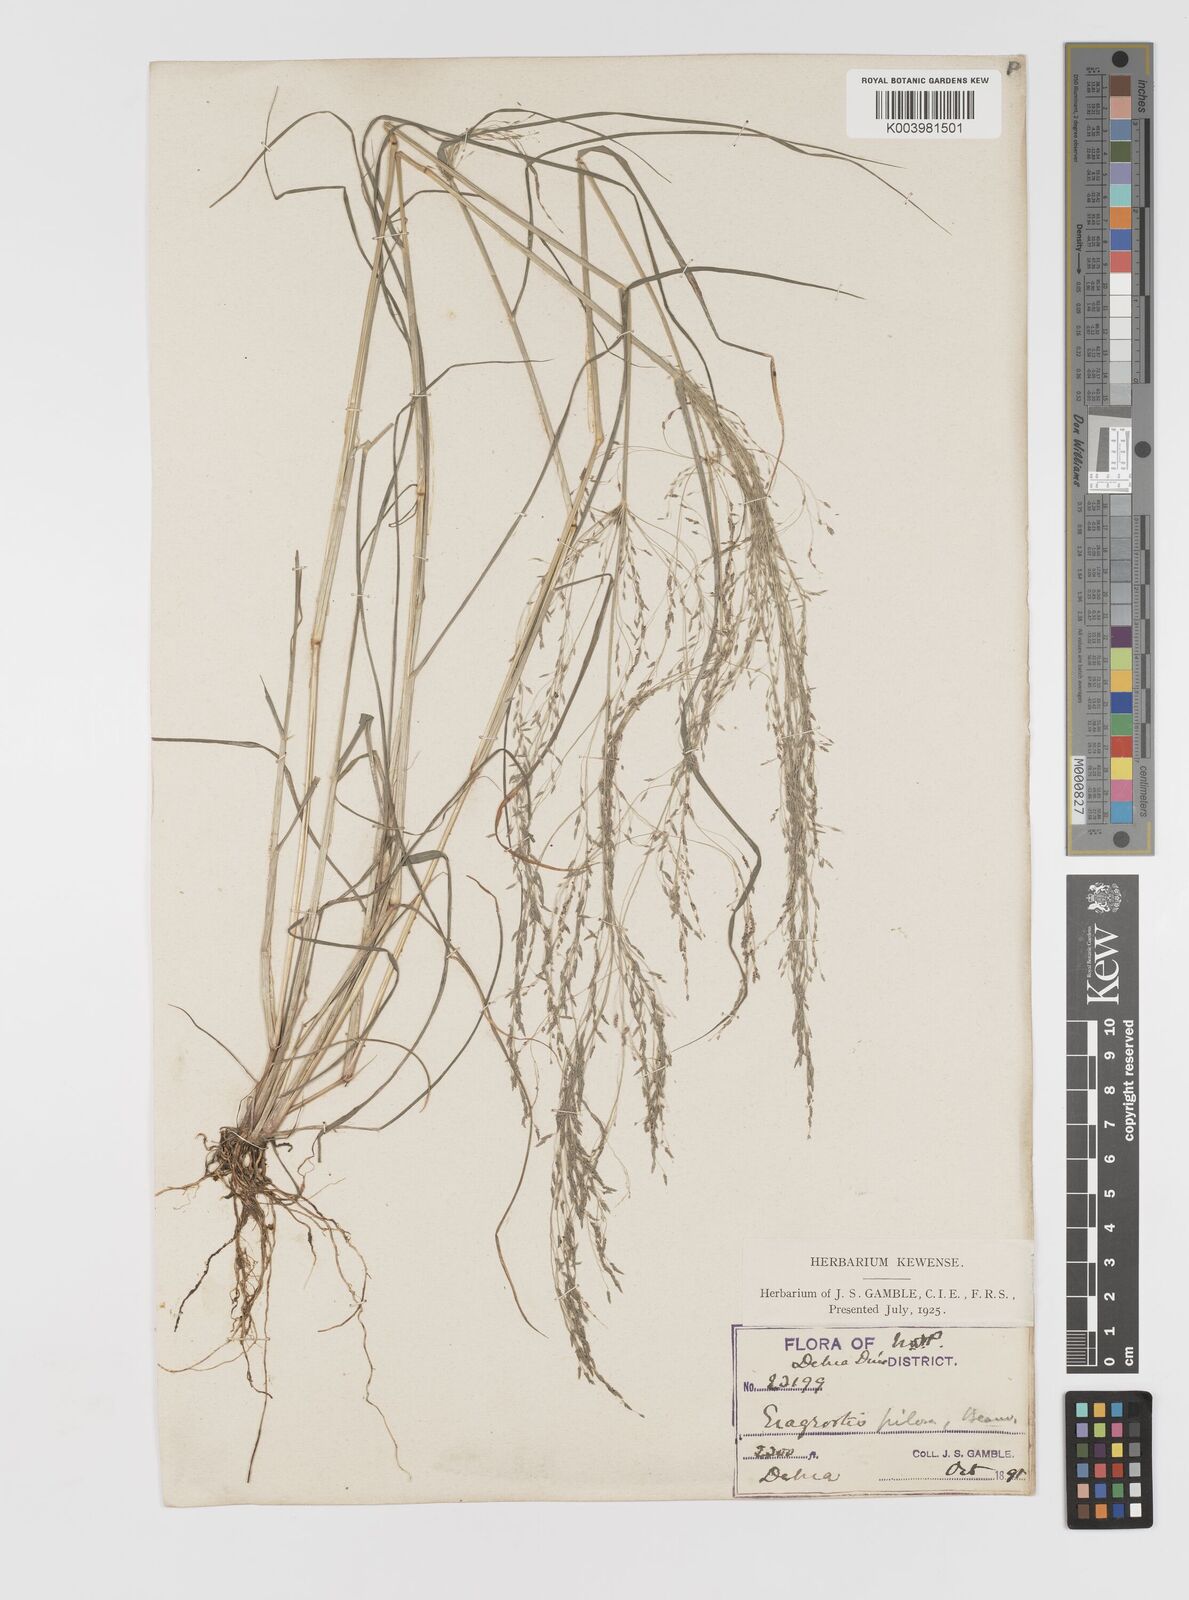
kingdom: Plantae
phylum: Tracheophyta
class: Liliopsida
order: Poales
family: Poaceae
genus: Eragrostis
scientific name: Eragrostis pilosa
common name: Indian lovegrass
